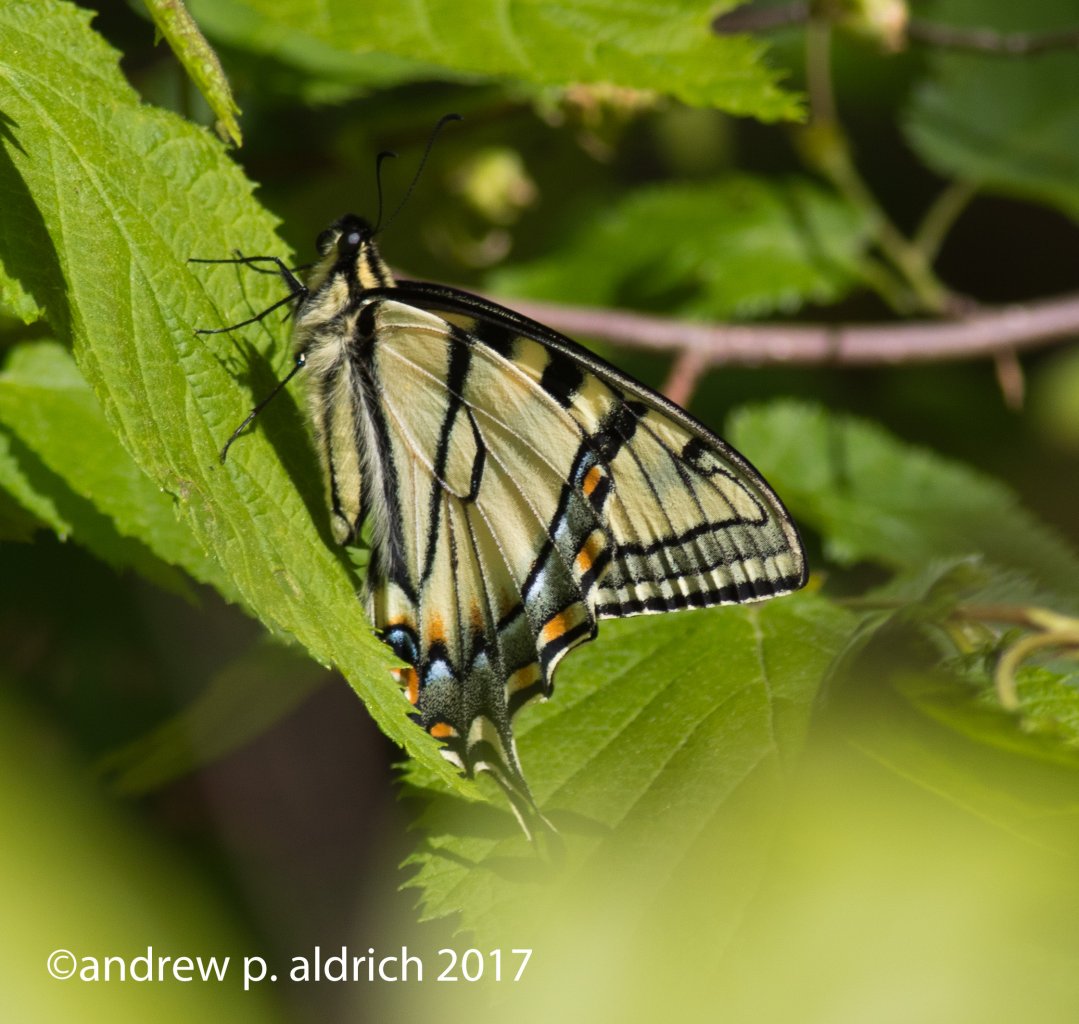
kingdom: Animalia
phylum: Arthropoda
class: Insecta
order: Lepidoptera
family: Papilionidae
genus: Pterourus
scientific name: Pterourus canadensis
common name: Canadian Tiger Swallowtail
